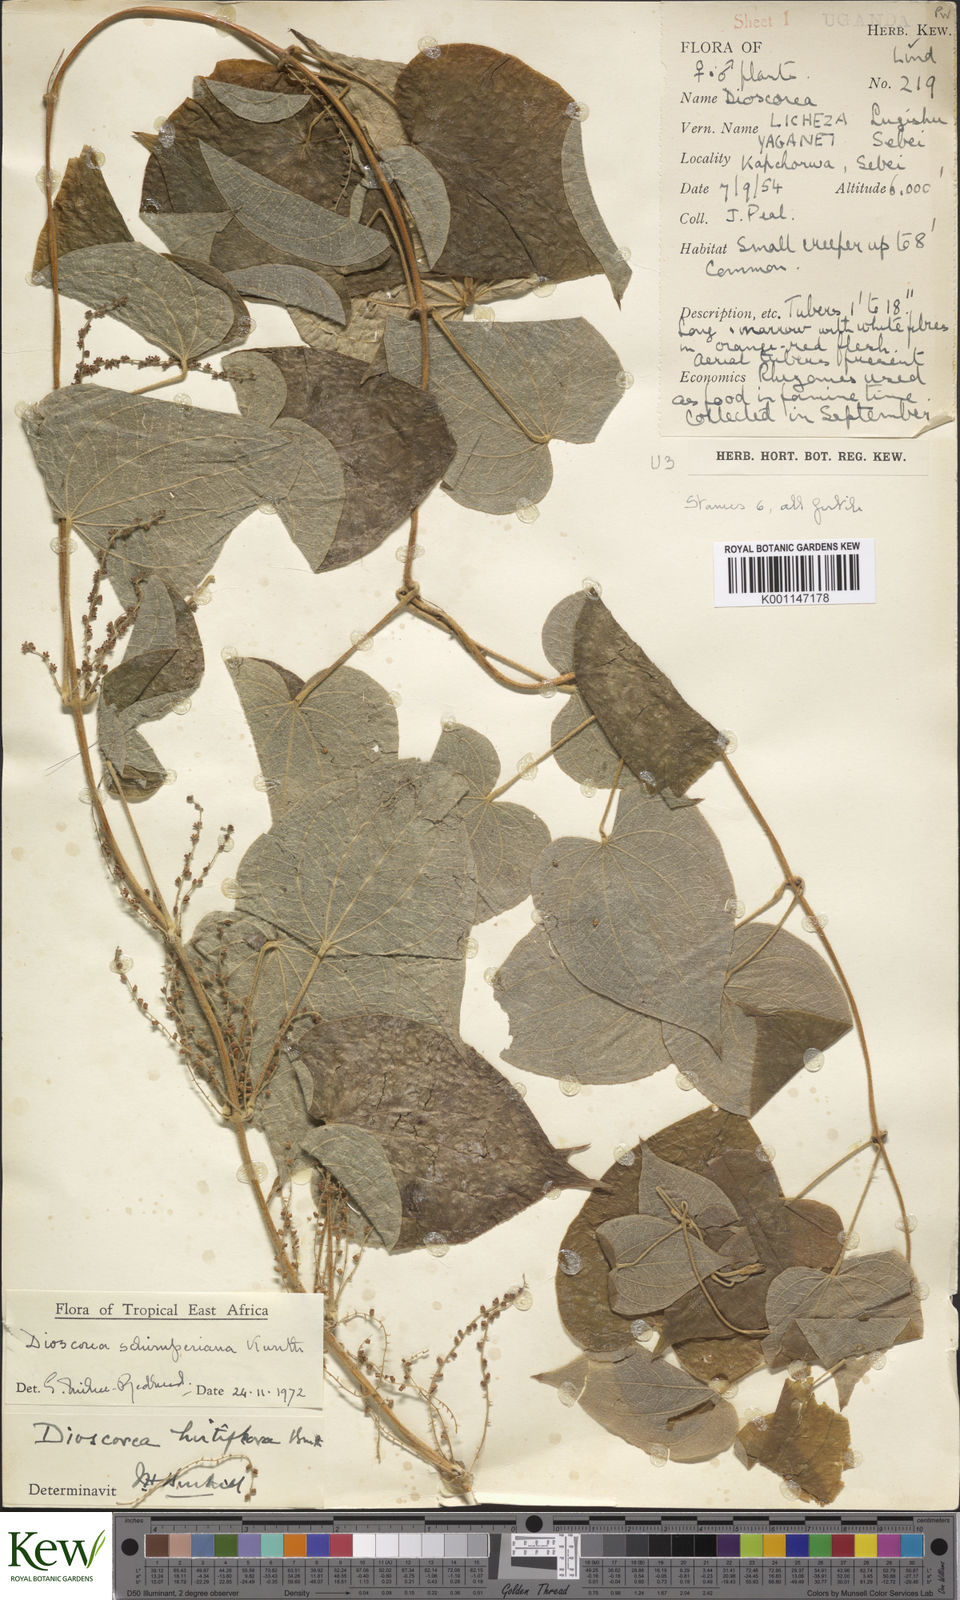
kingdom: Plantae
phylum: Tracheophyta
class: Liliopsida
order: Dioscoreales
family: Dioscoreaceae
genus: Dioscorea
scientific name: Dioscorea schimperiana
